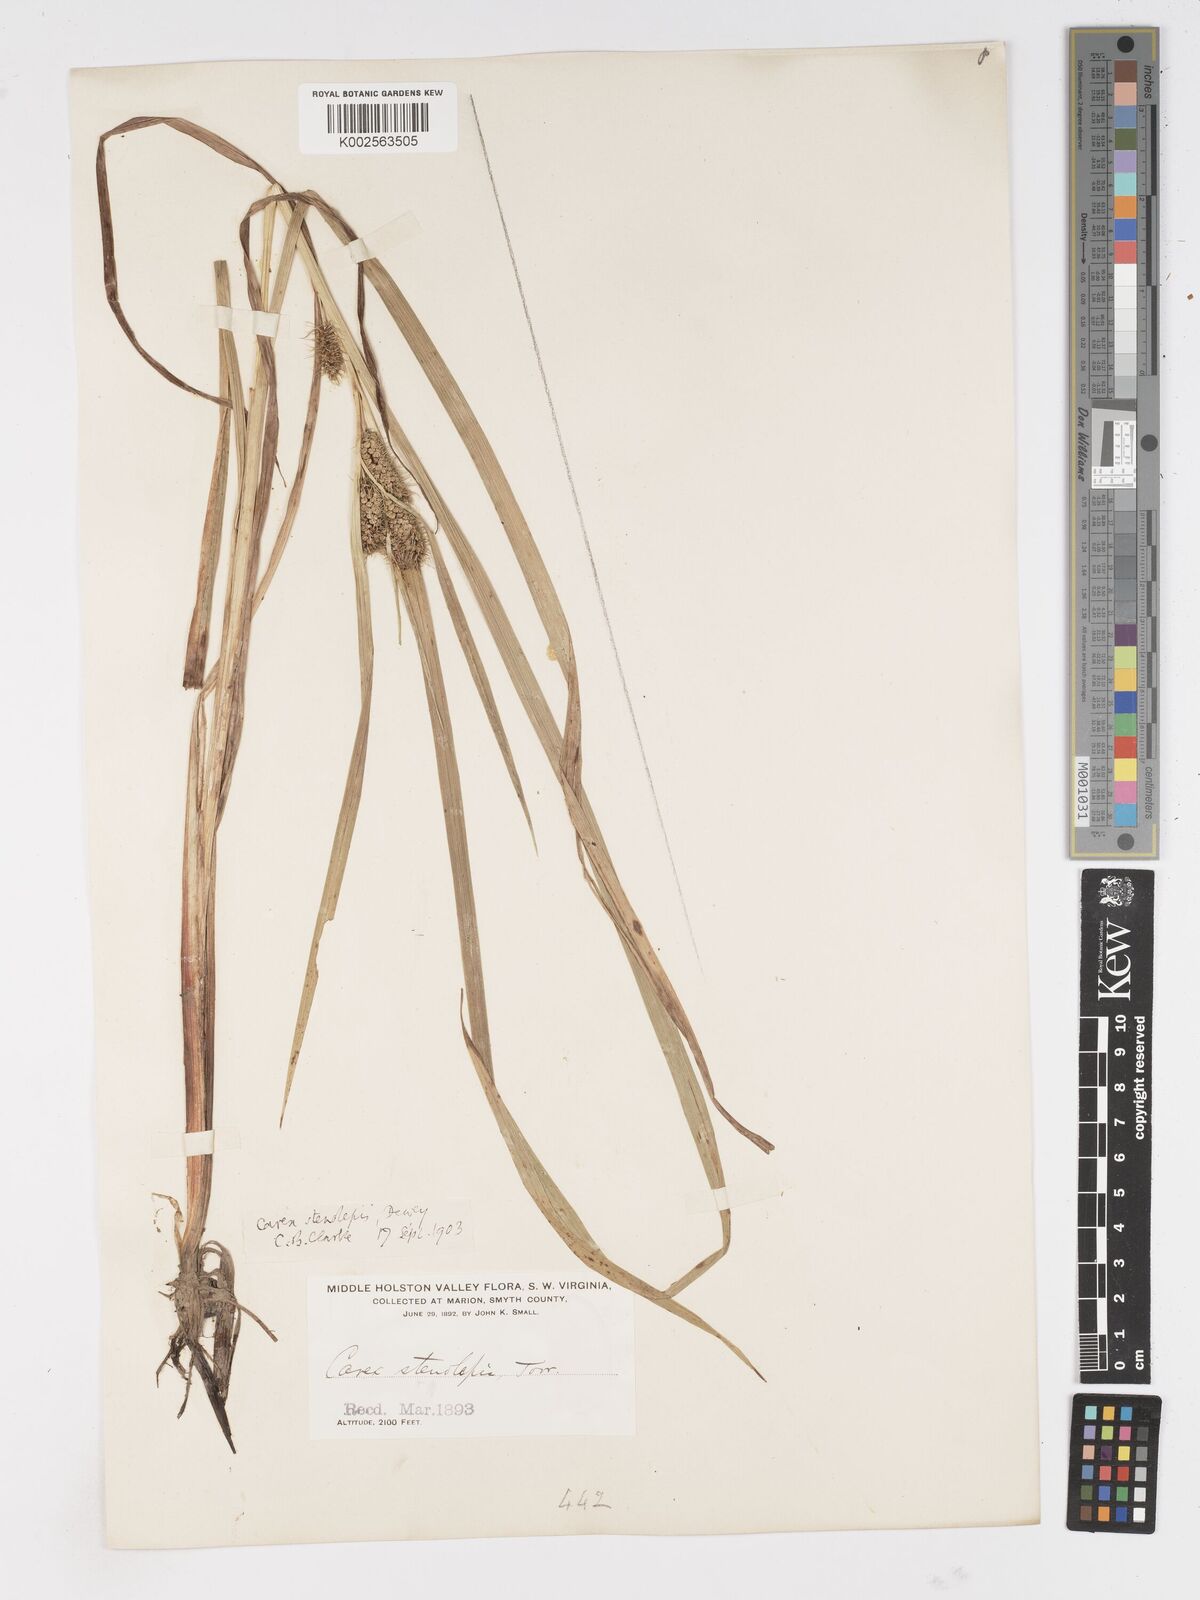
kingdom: Plantae
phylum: Tracheophyta
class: Liliopsida
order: Poales
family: Cyperaceae
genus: Carex
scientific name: Carex frankii
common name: Frank's sedge
